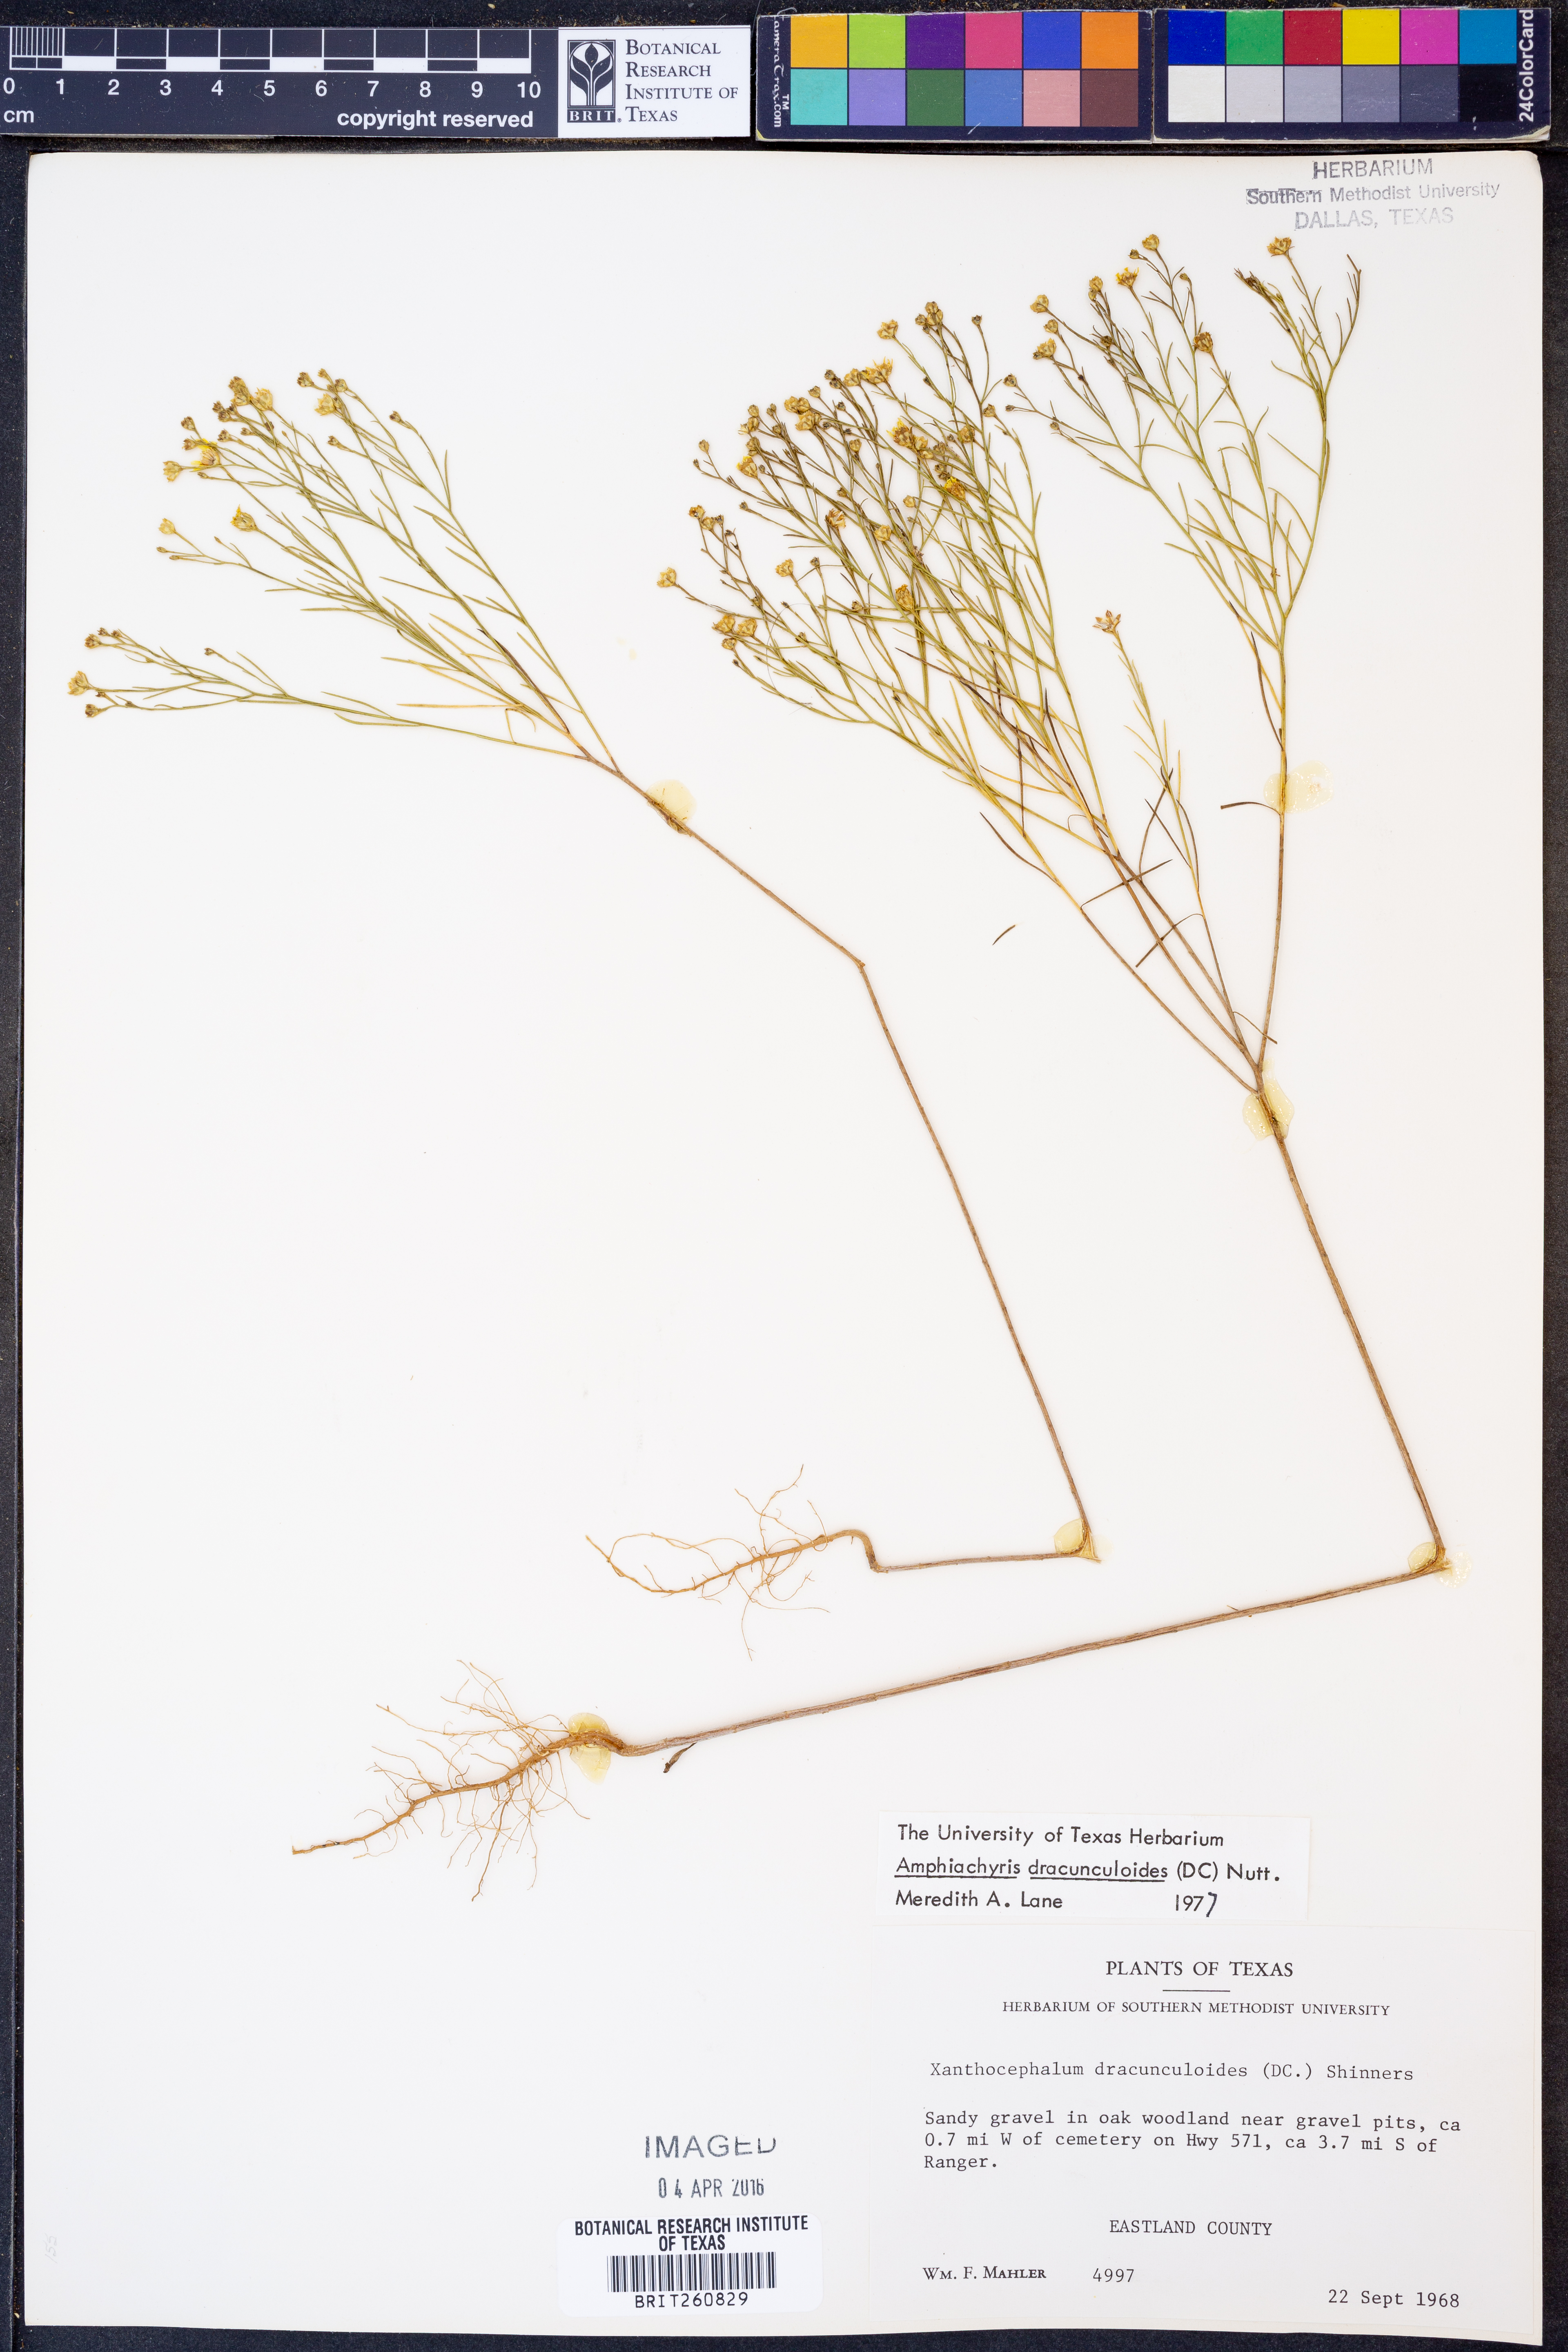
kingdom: Plantae
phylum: Tracheophyta
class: Magnoliopsida
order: Asterales
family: Asteraceae
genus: Amphiachyris
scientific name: Amphiachyris dracunculoides
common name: Broomweed
